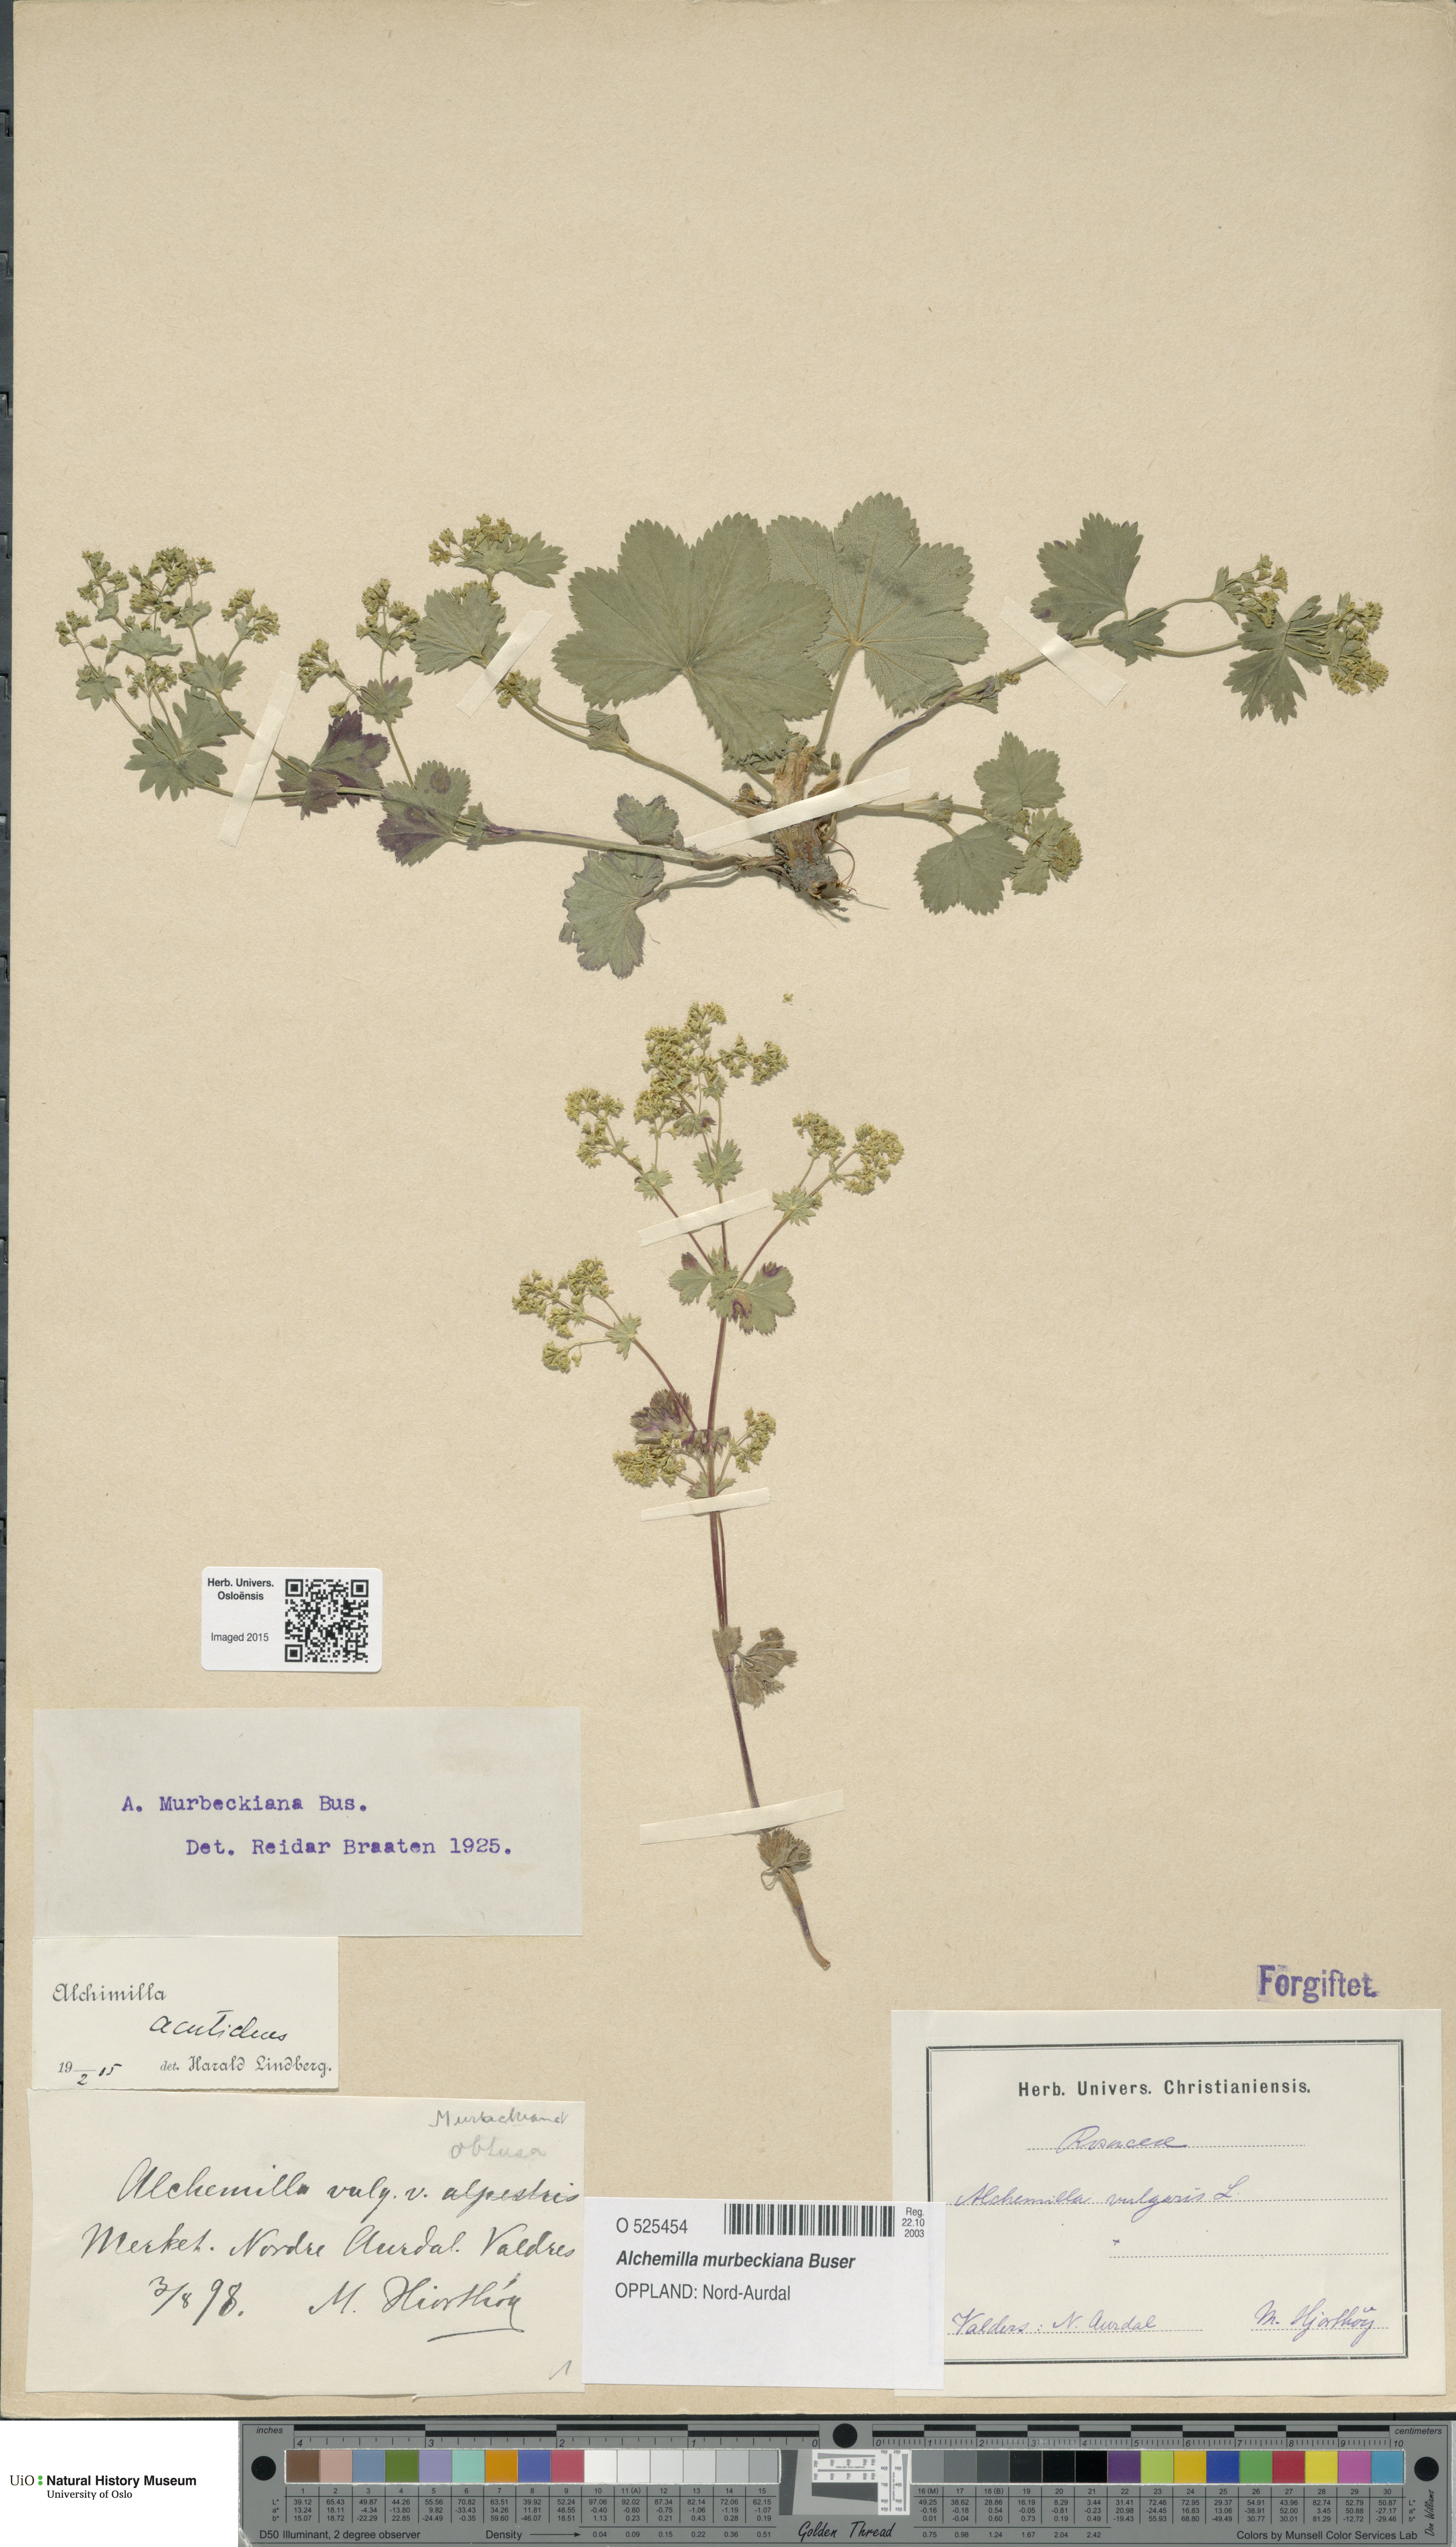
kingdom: Plantae
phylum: Tracheophyta
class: Magnoliopsida
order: Rosales
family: Rosaceae
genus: Alchemilla
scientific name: Alchemilla murbeckiana
